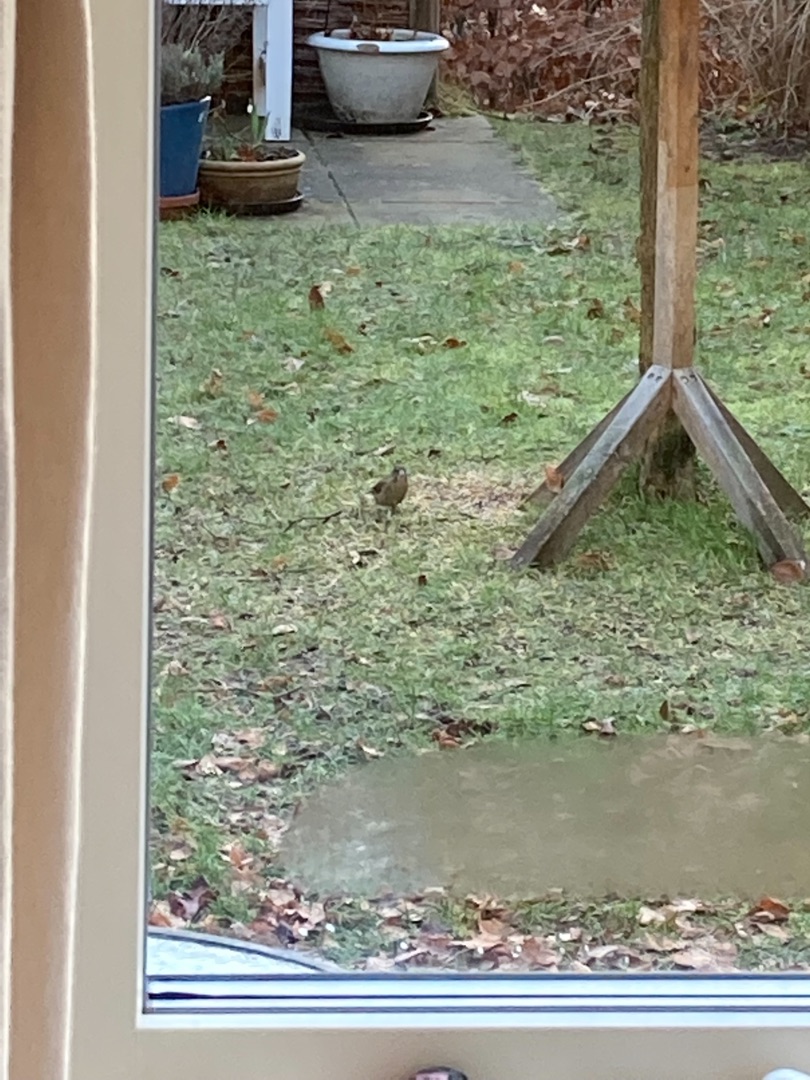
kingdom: Plantae
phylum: Tracheophyta
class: Liliopsida
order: Poales
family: Poaceae
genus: Chloris
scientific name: Chloris chloris
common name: Grønirisk
